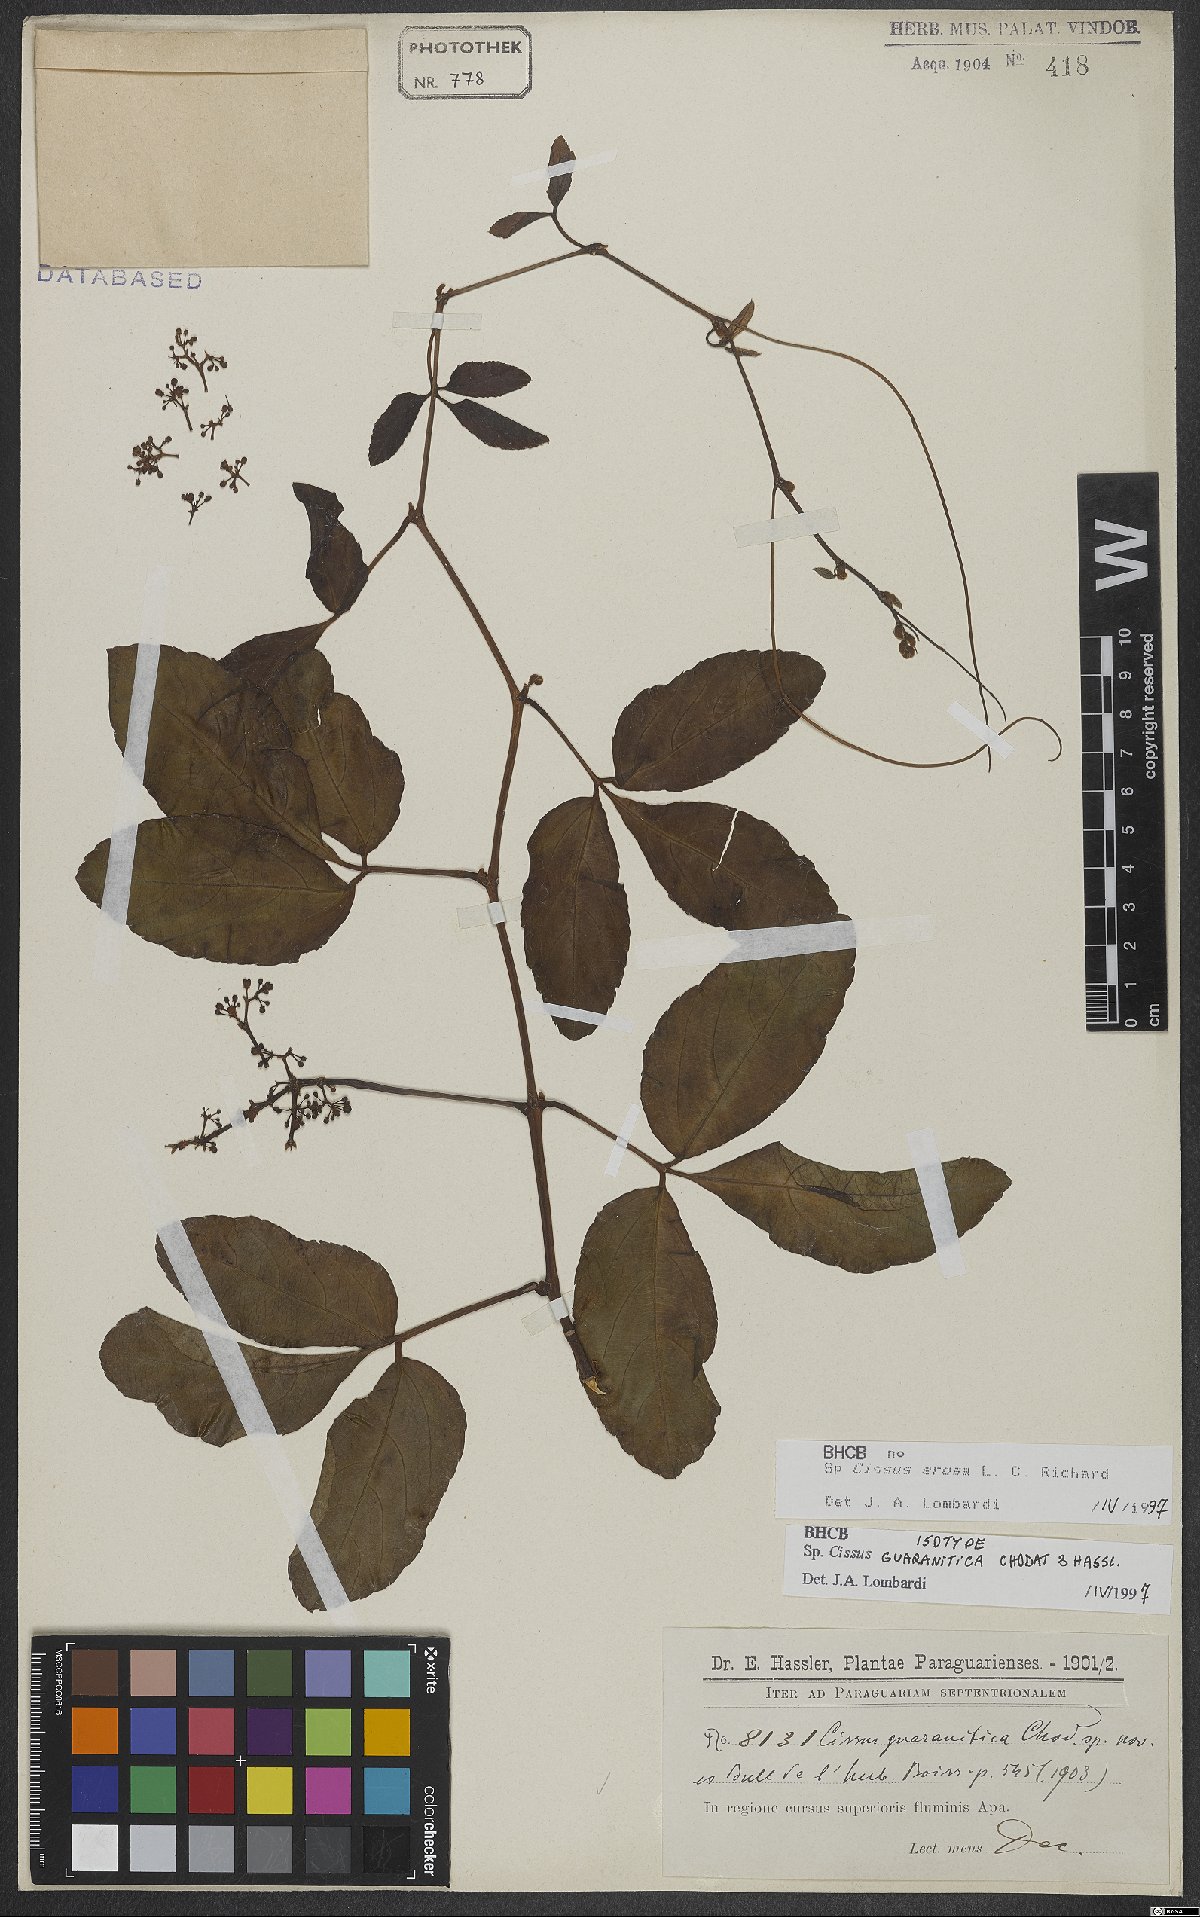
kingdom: Plantae
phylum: Tracheophyta
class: Magnoliopsida
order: Vitales
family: Vitaceae
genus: Cissus
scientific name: Cissus erosa
